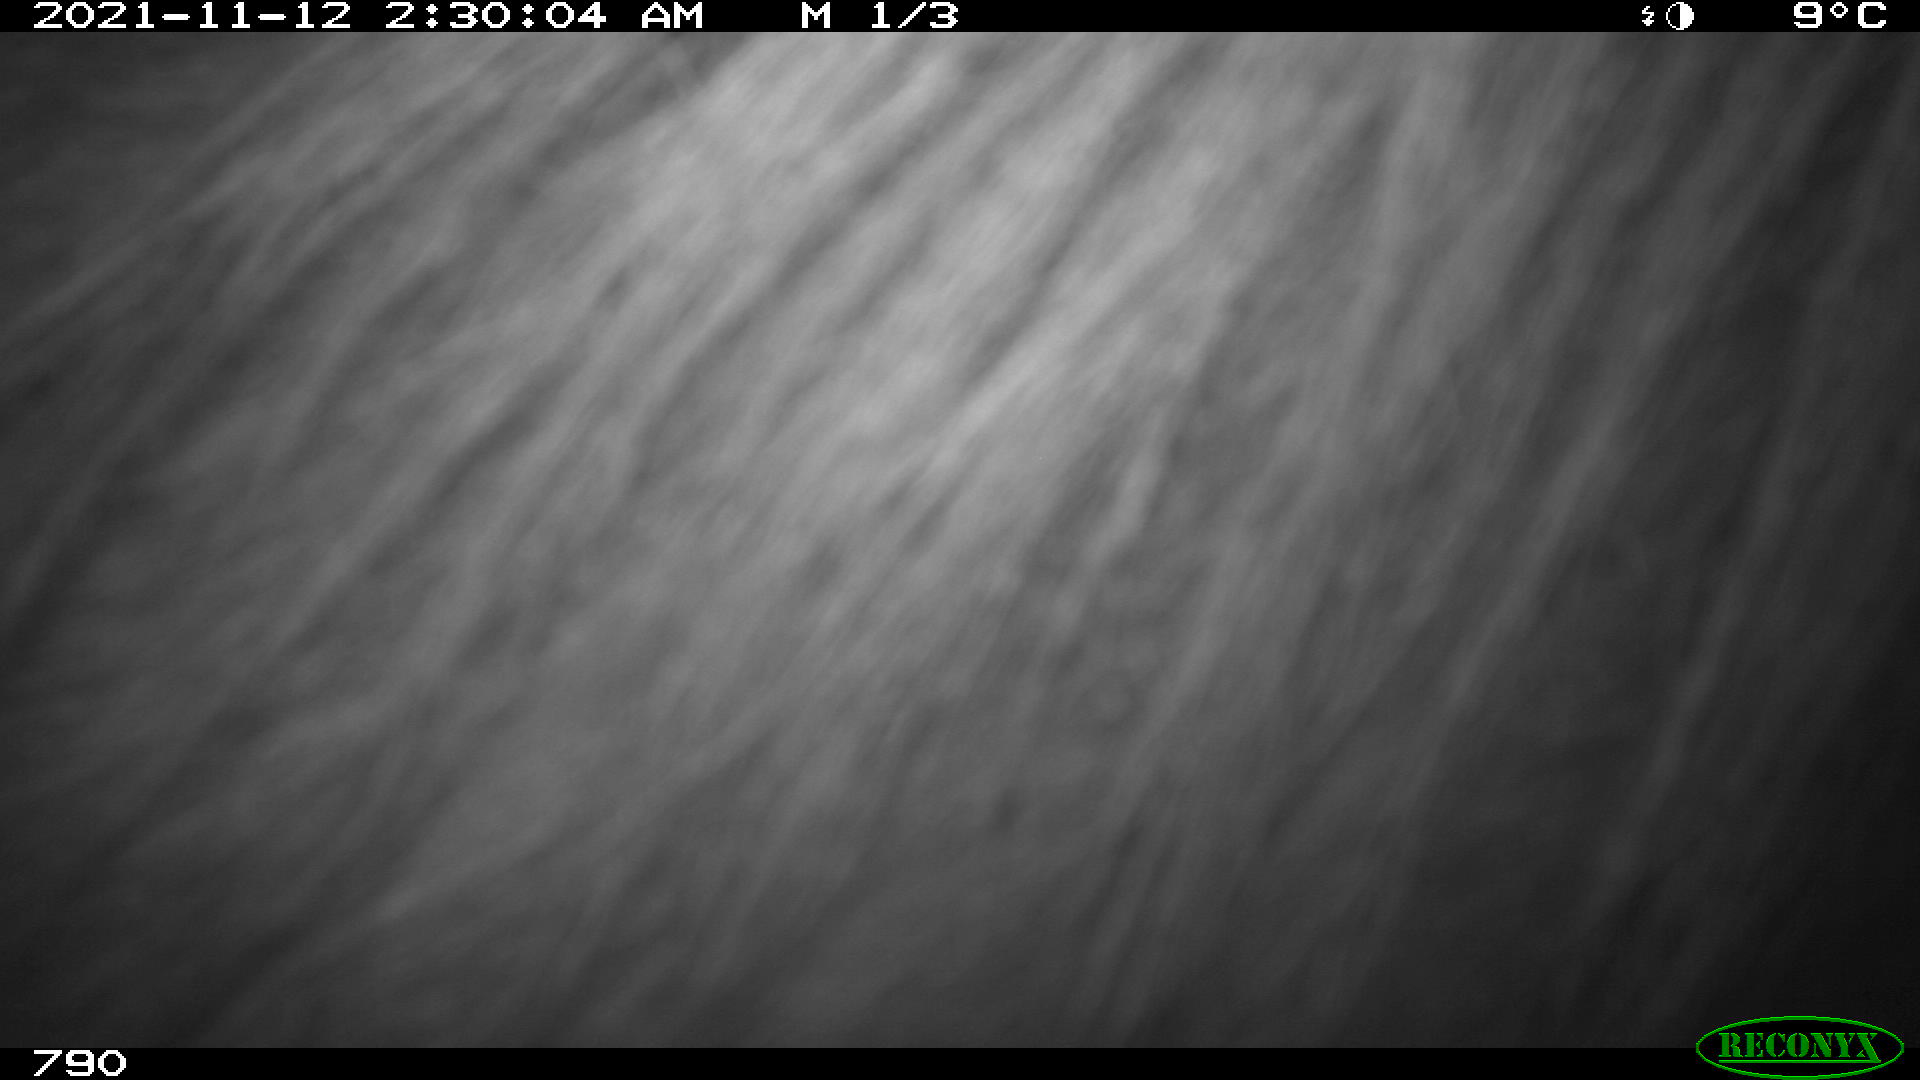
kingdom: Animalia
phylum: Chordata
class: Mammalia
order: Perissodactyla
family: Equidae
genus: Equus
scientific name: Equus caballus
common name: Horse
